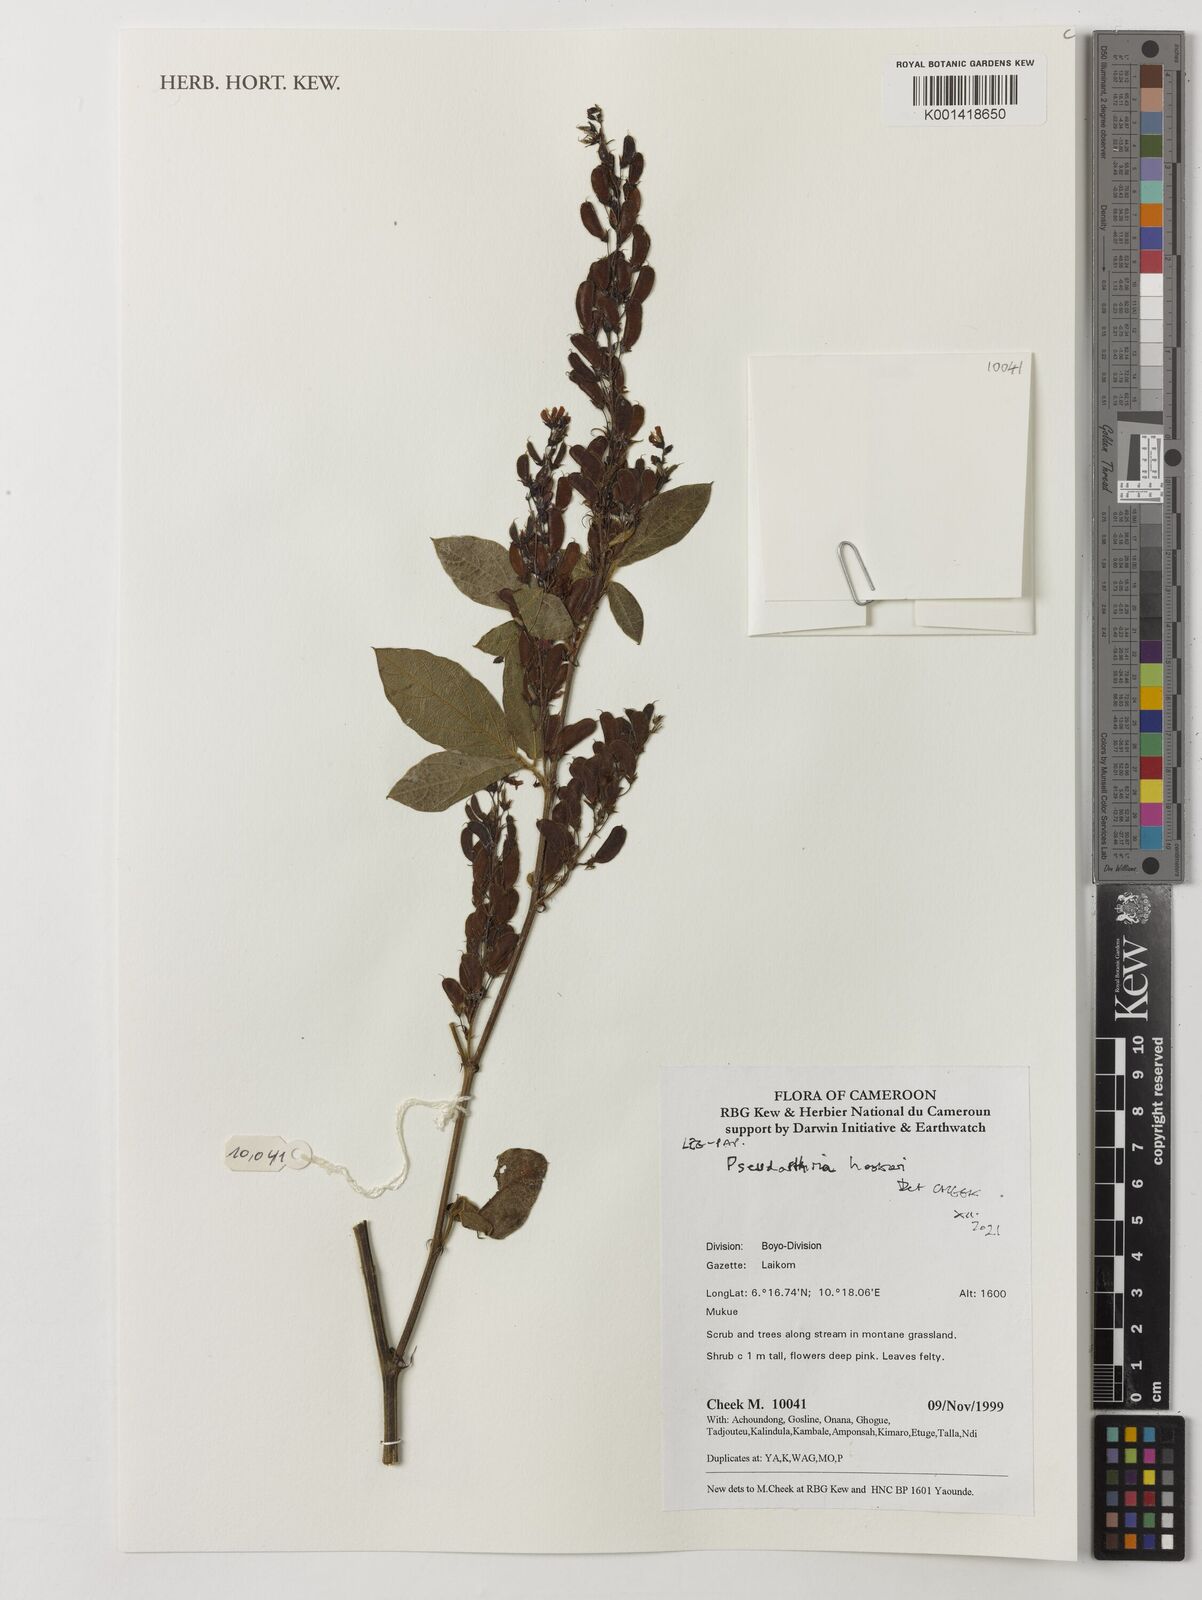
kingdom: Plantae
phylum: Tracheophyta
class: Magnoliopsida
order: Fabales
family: Fabaceae
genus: Pseudarthria
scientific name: Pseudarthria hookeri
